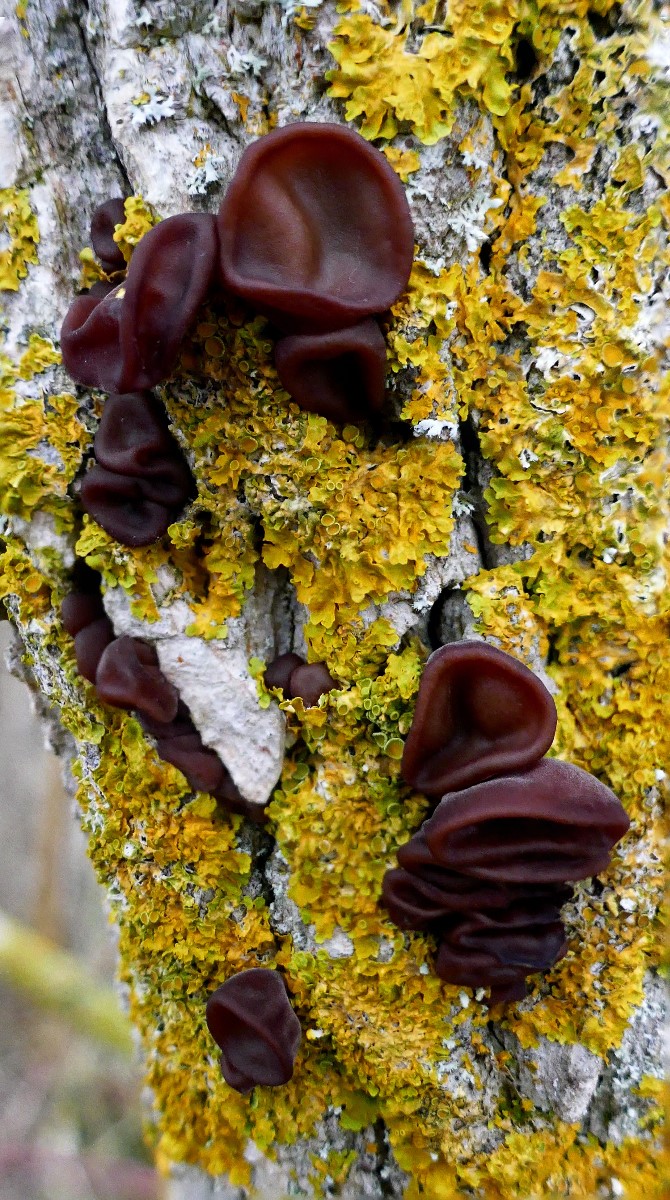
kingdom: Fungi
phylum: Basidiomycota
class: Agaricomycetes
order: Auriculariales
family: Auriculariaceae
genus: Auricularia
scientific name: Auricularia auricula-judae
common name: almindelig judasøre
